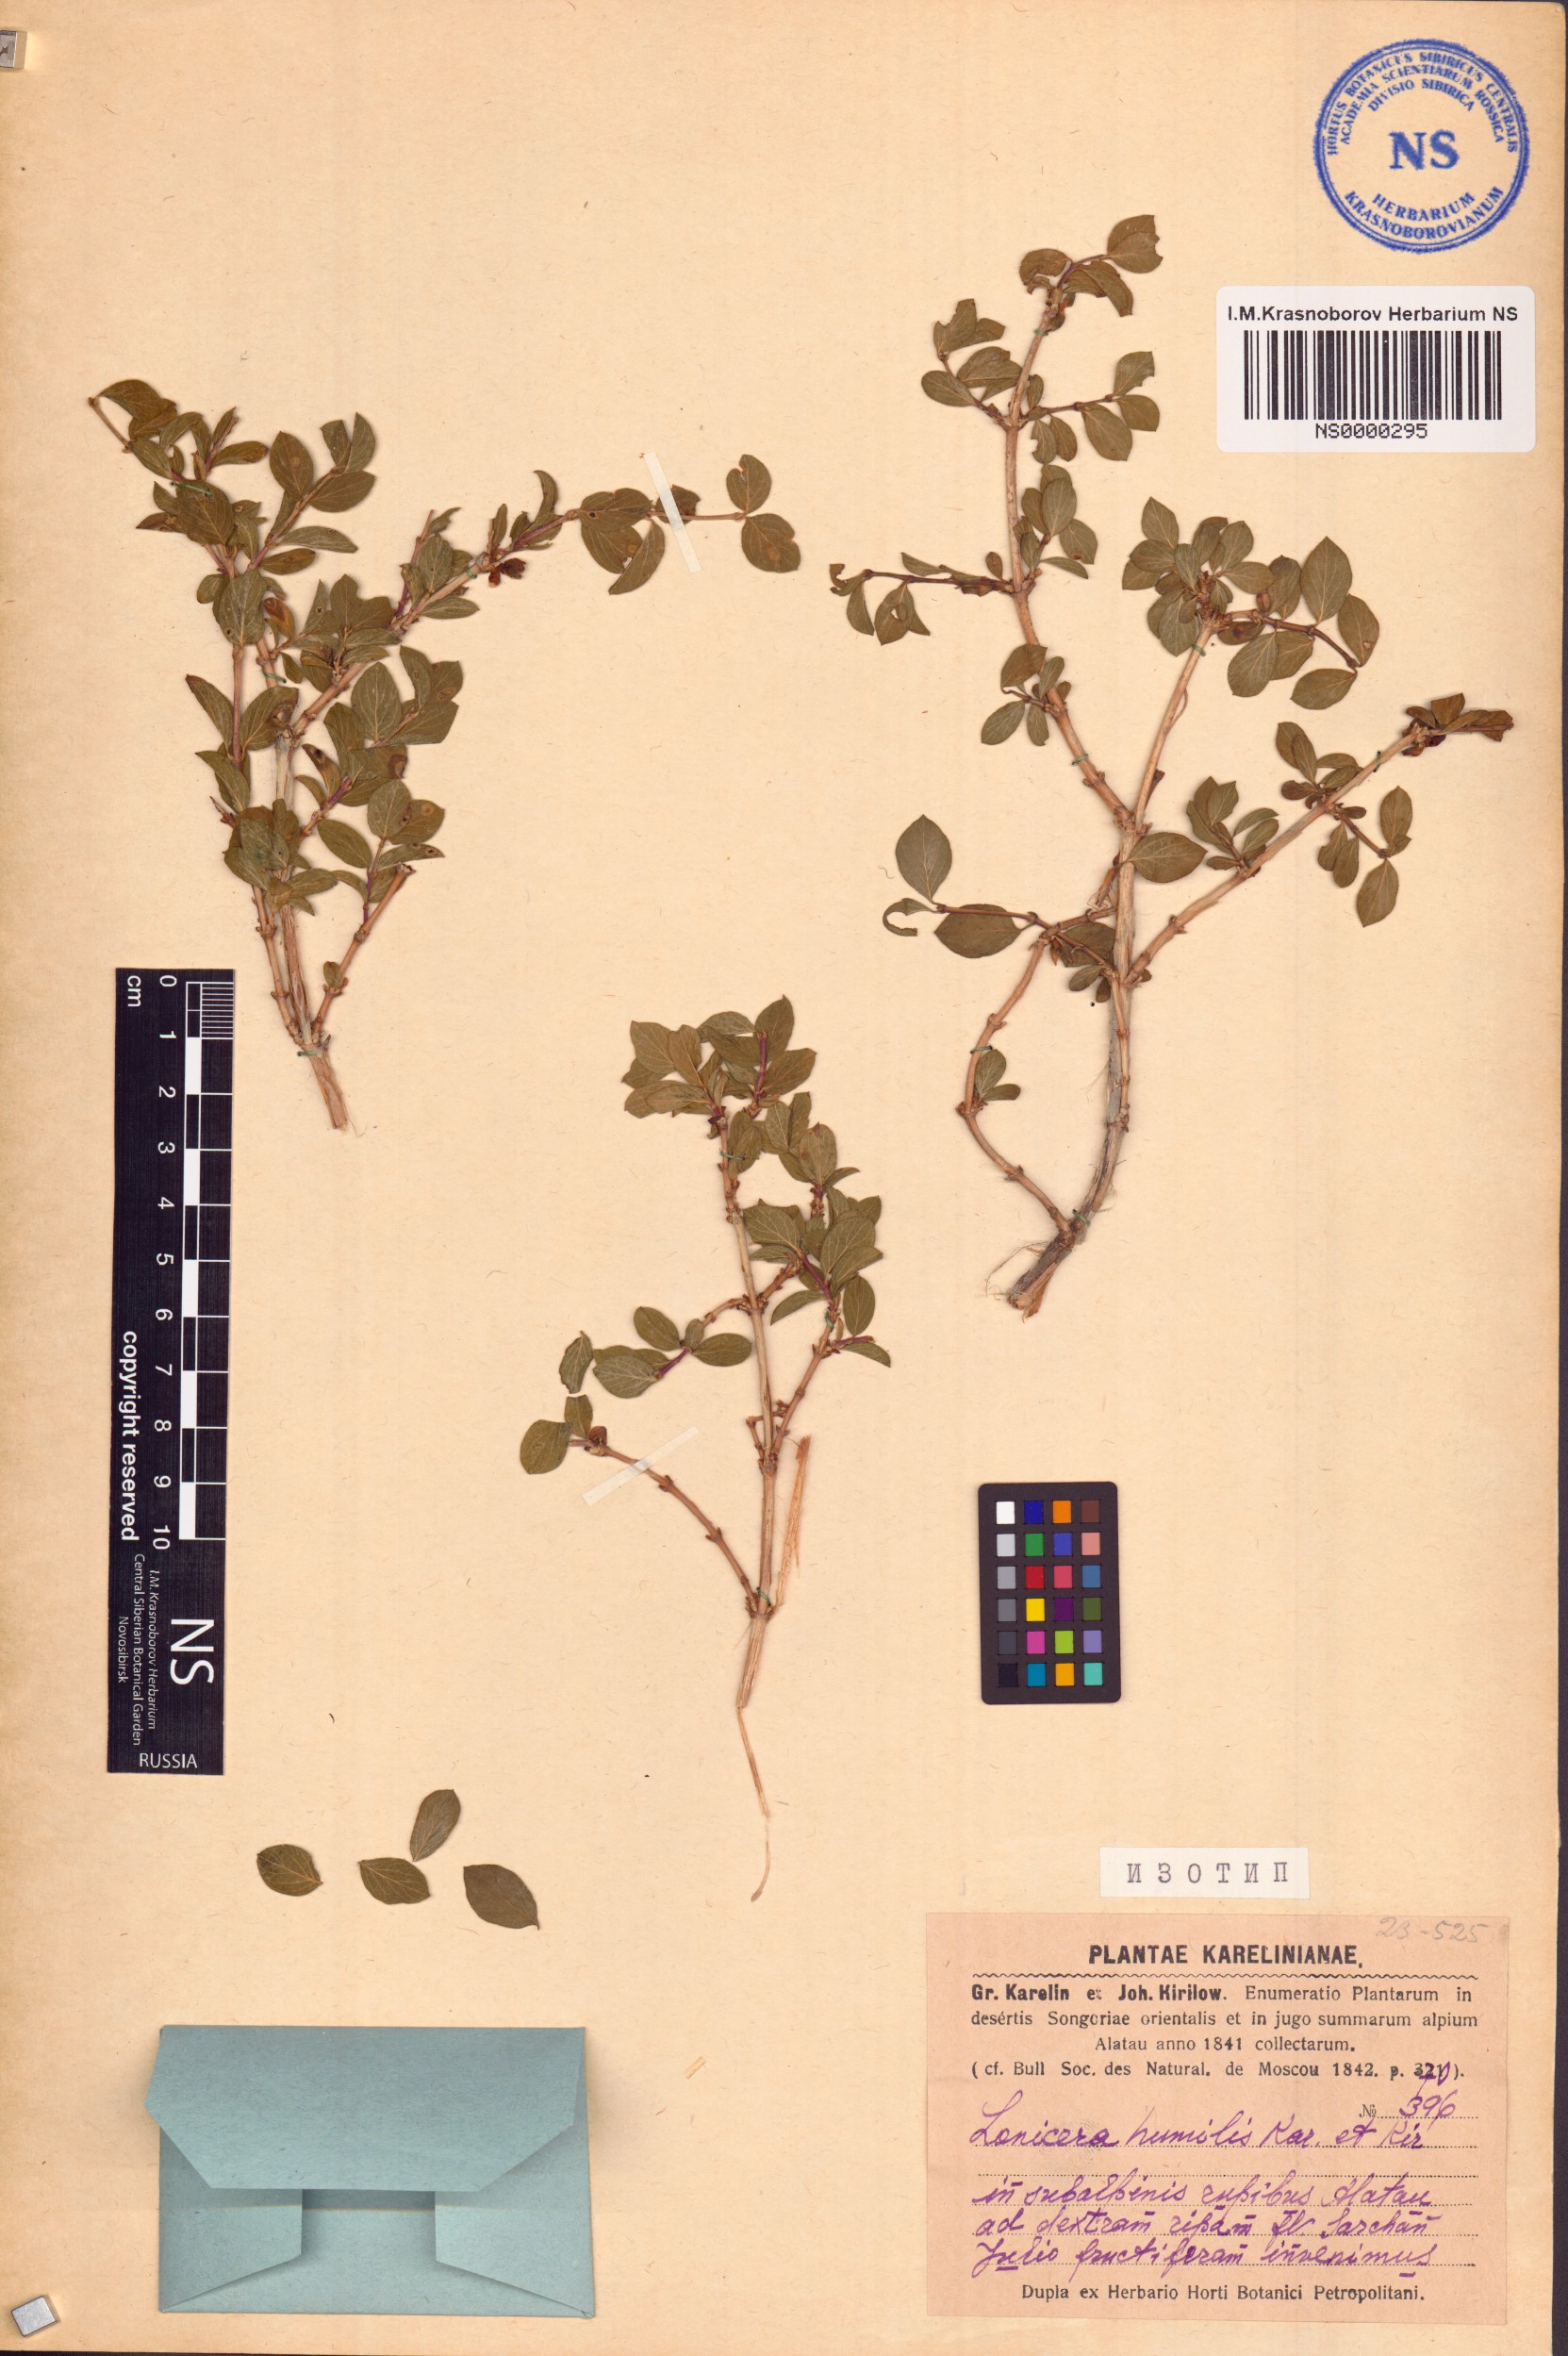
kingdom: Plantae
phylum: Tracheophyta
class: Magnoliopsida
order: Dipsacales
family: Caprifoliaceae
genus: Lonicera
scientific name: Lonicera humilis
